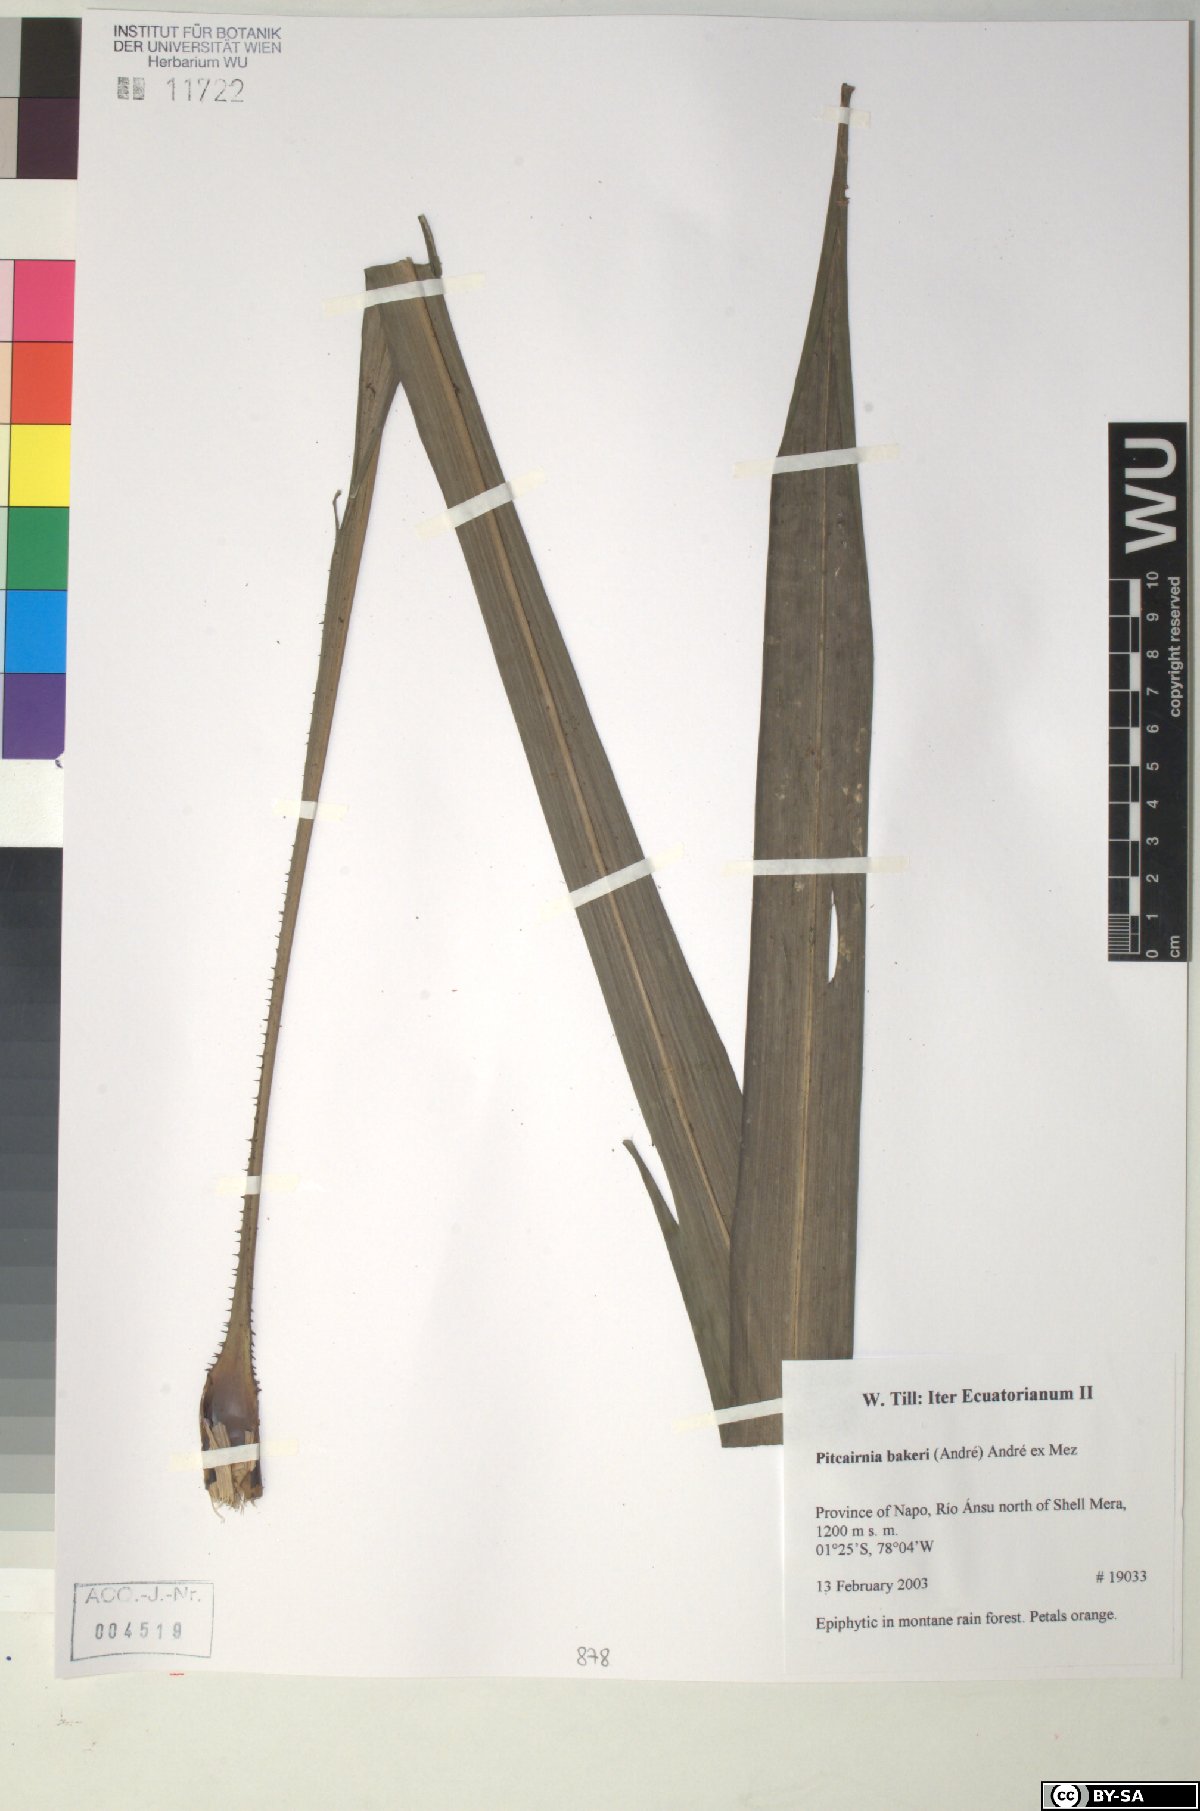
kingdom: Plantae
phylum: Tracheophyta
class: Liliopsida
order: Poales
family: Bromeliaceae
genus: Pitcairnia
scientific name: Pitcairnia bakeri
